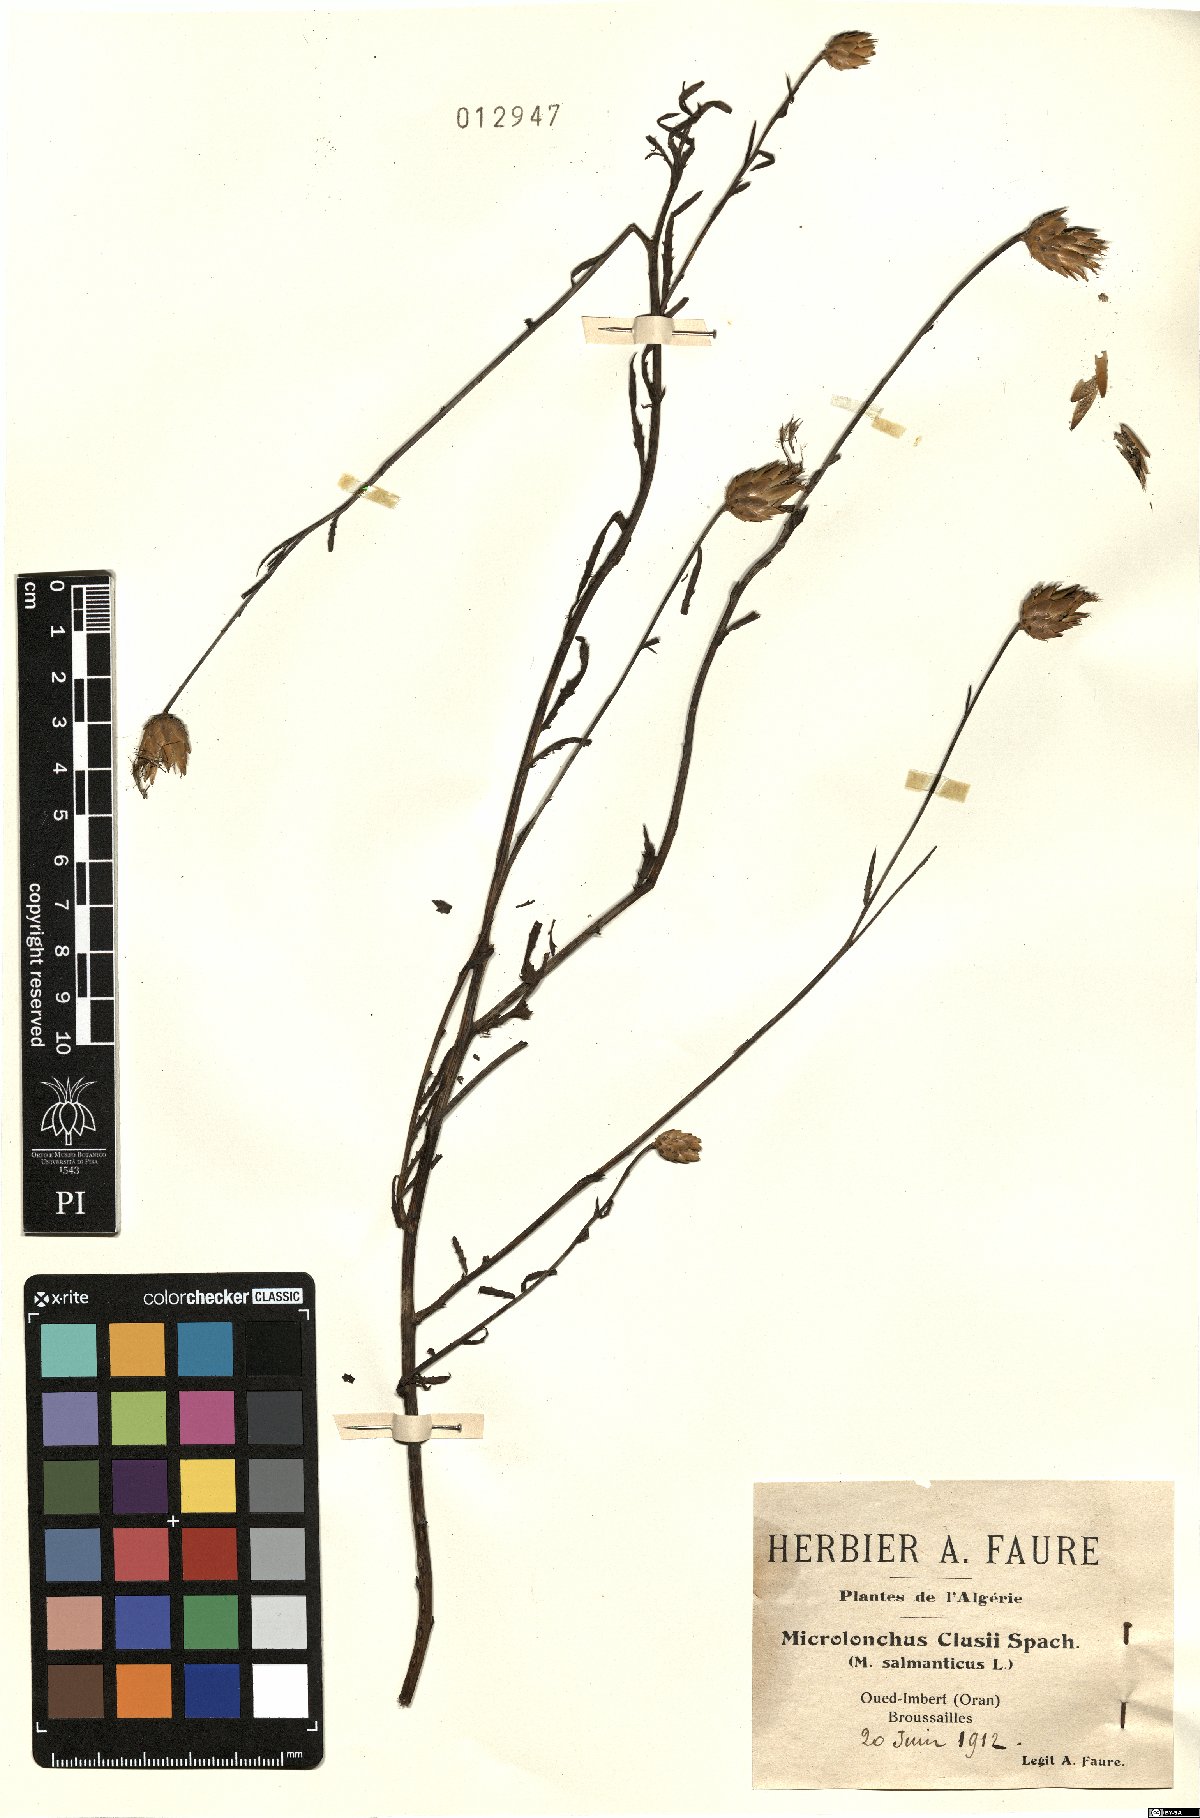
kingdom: Plantae
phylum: Tracheophyta
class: Magnoliopsida
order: Asterales
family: Asteraceae
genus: Mantisalca
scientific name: Mantisalca salmantica
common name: Dagger flower
